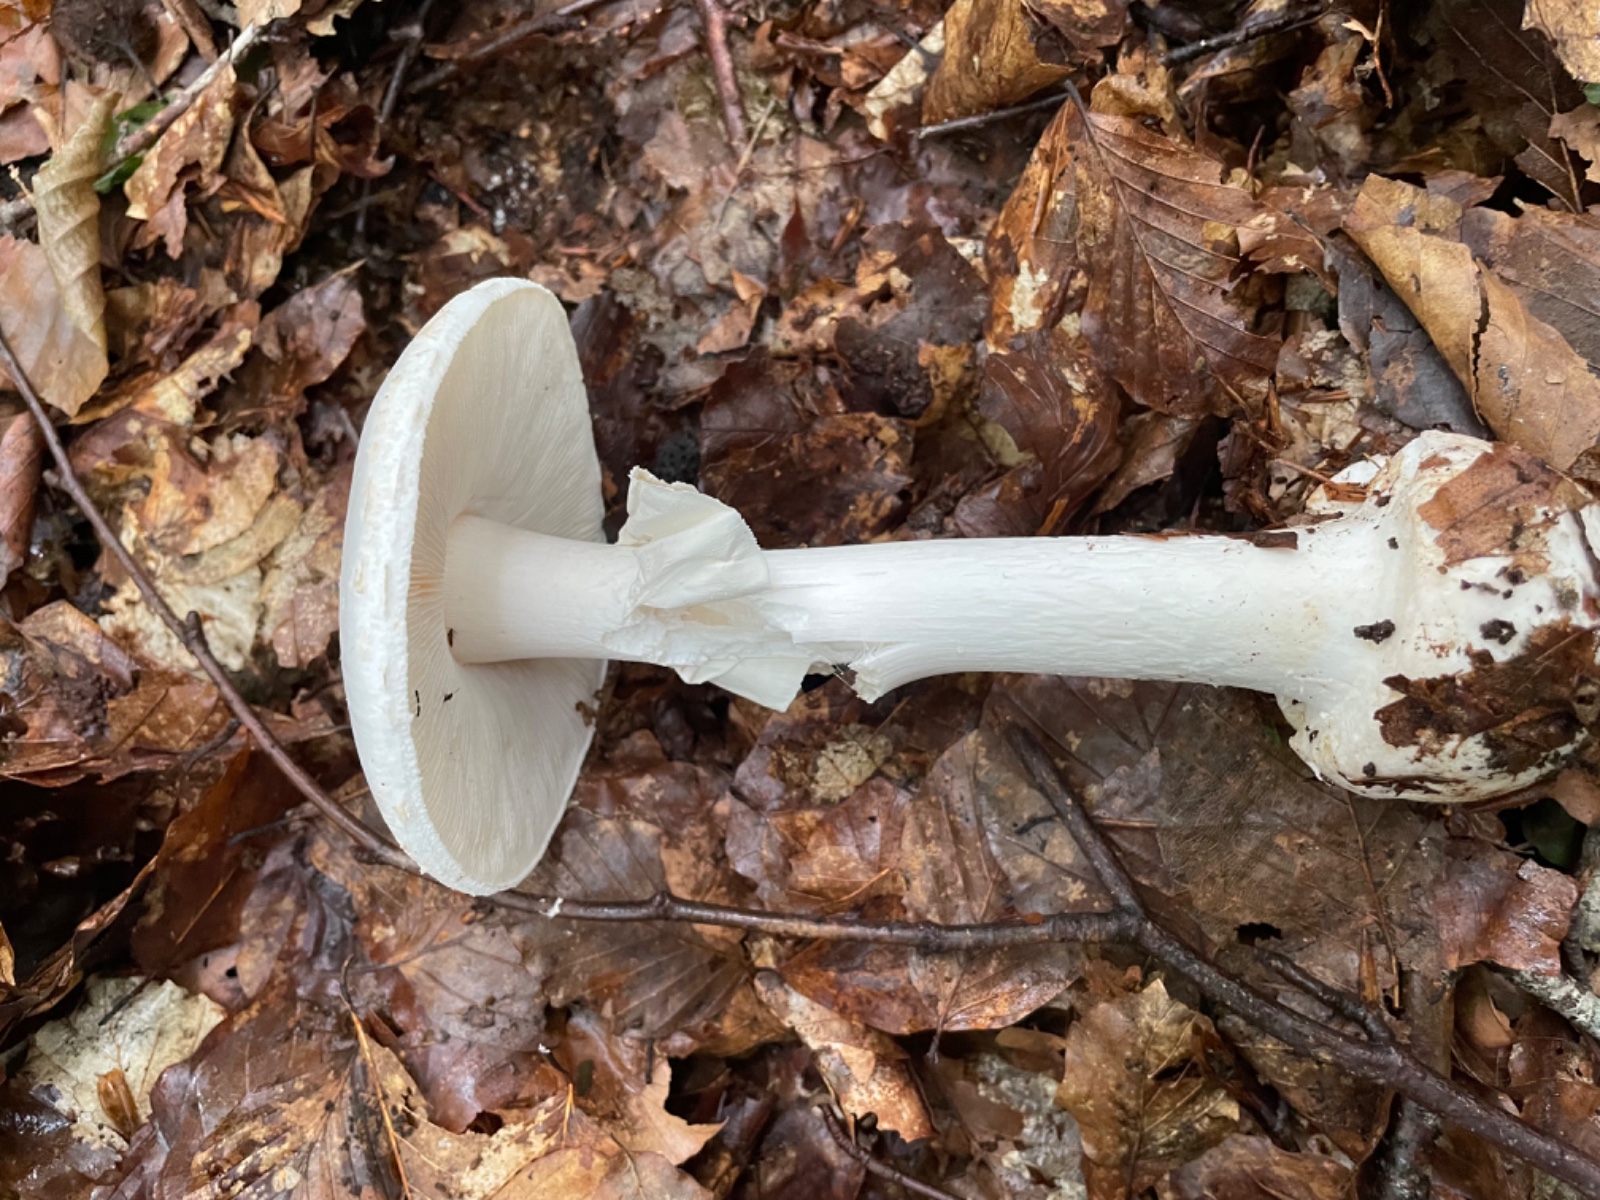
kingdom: Fungi
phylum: Basidiomycota
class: Agaricomycetes
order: Agaricales
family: Amanitaceae
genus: Amanita
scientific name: Amanita citrina
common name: kugleknoldet fluesvamp
